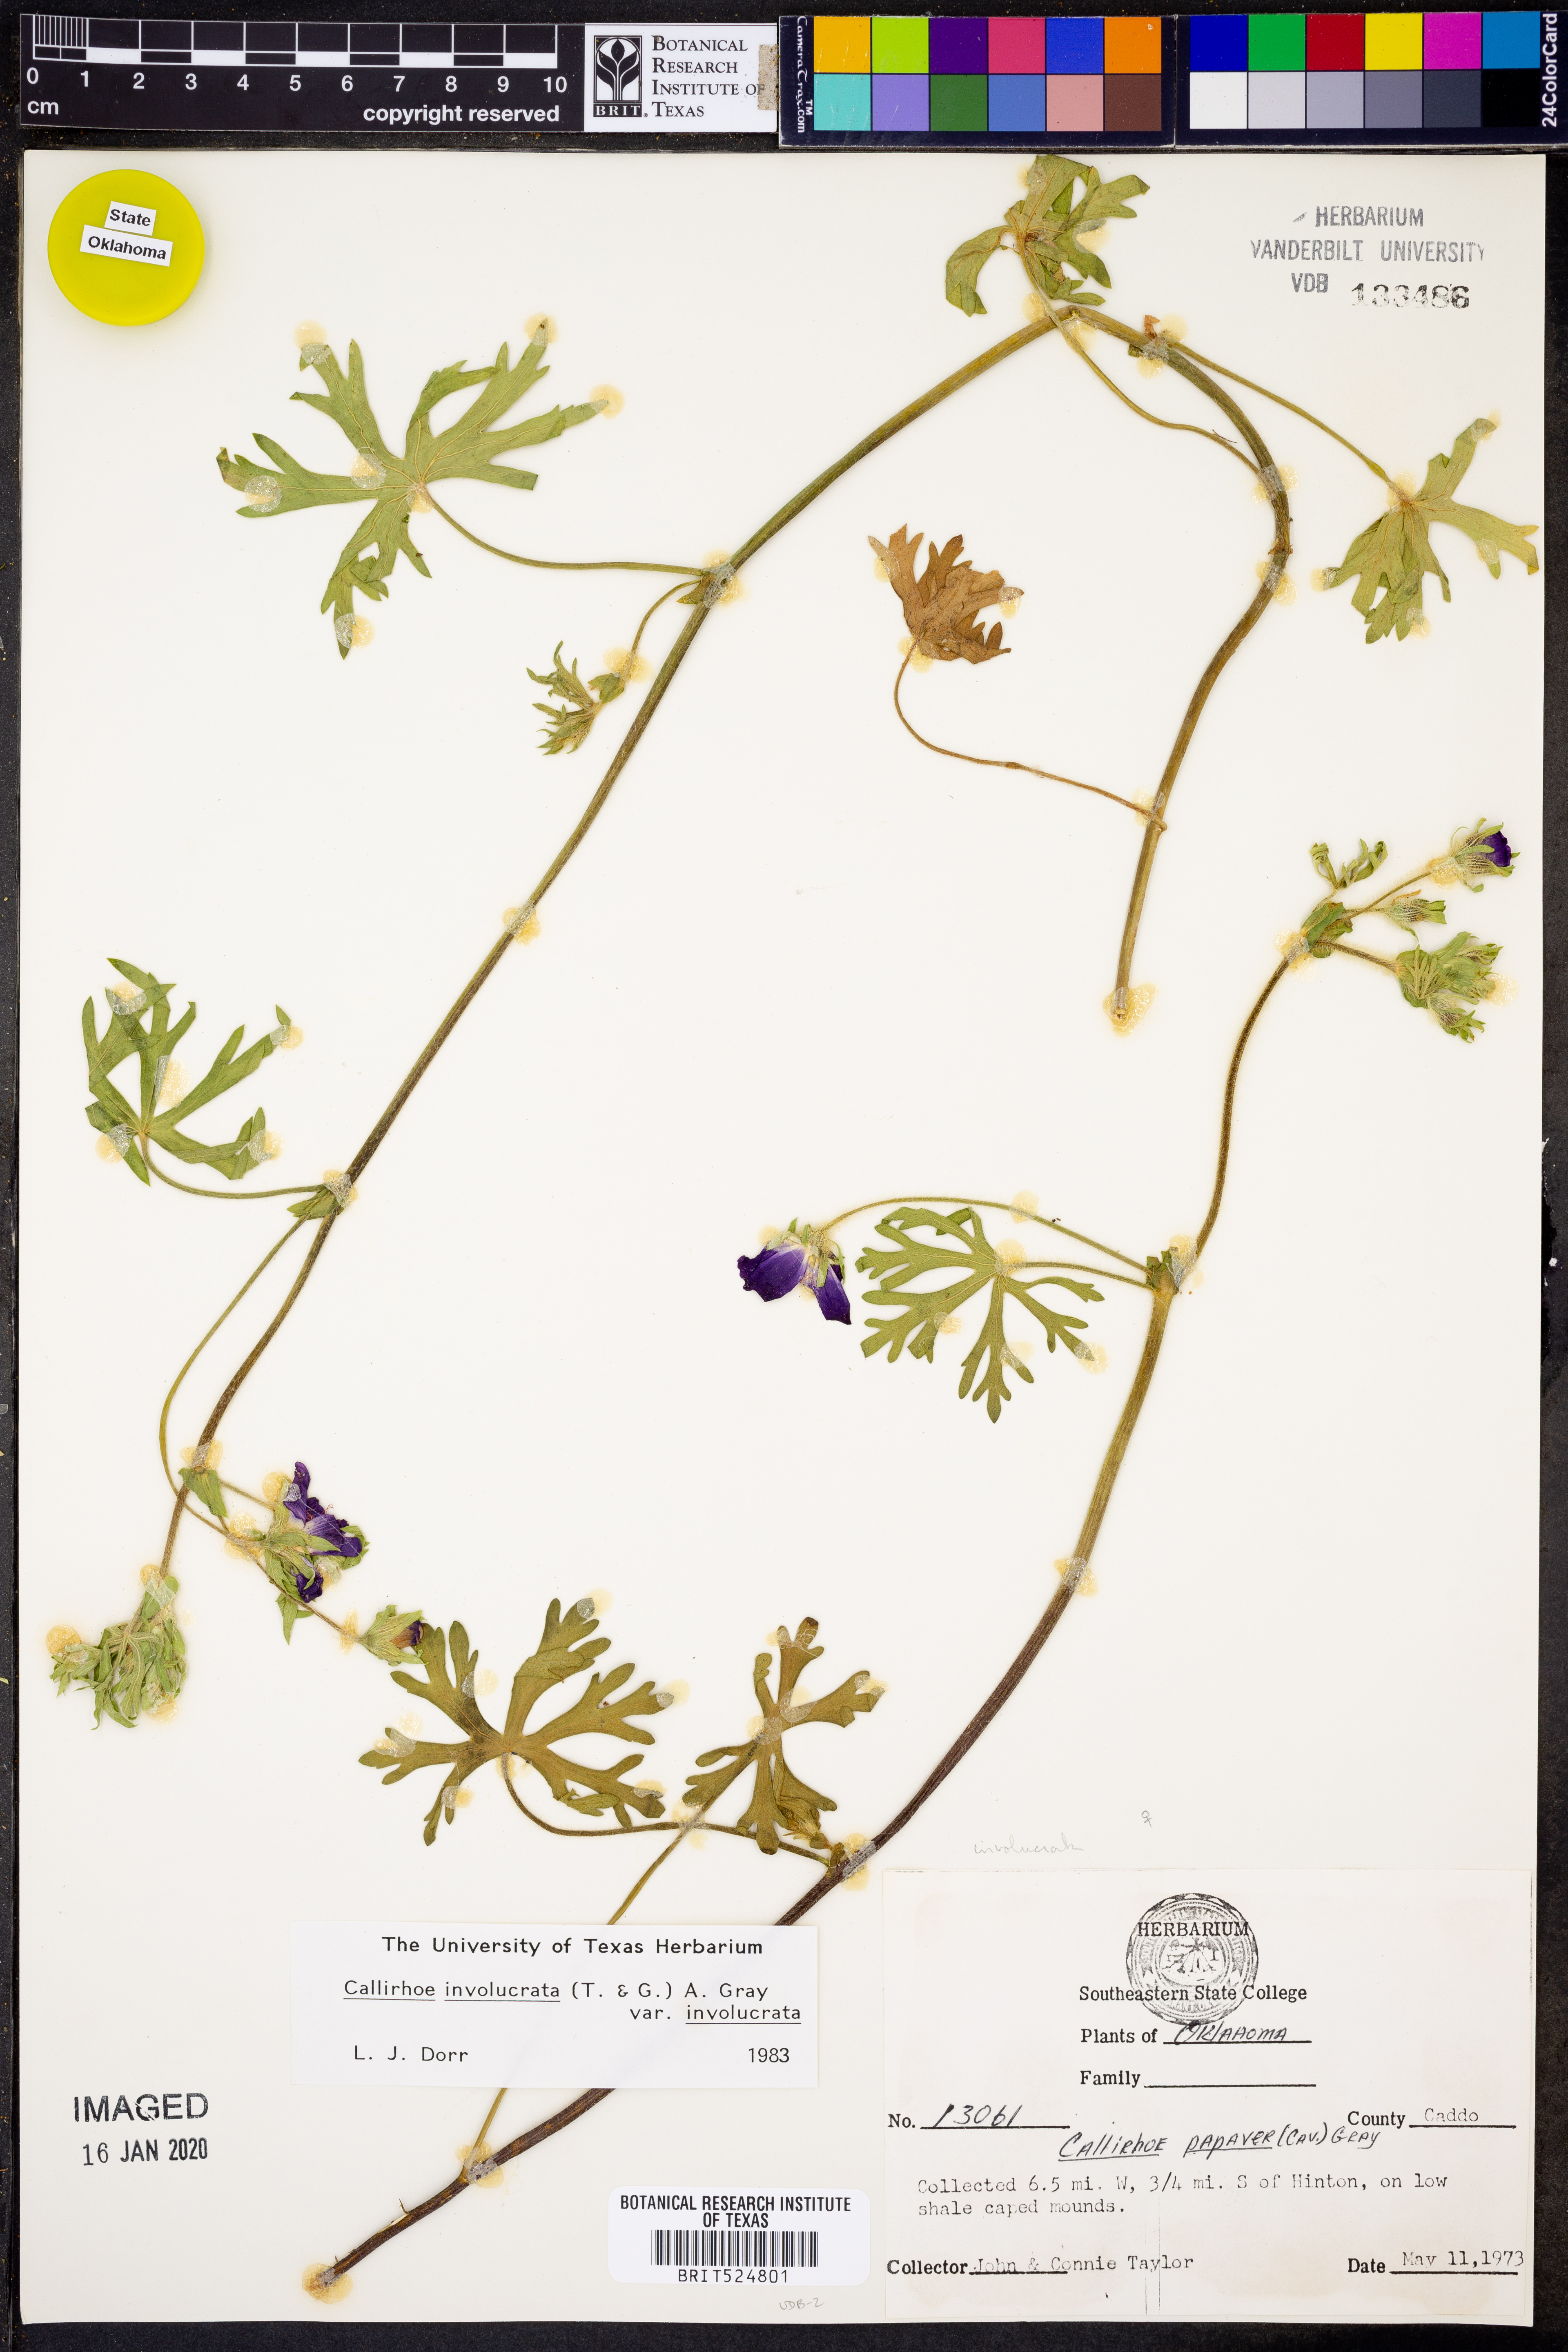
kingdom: Plantae
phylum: Tracheophyta
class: Magnoliopsida
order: Malvales
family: Malvaceae
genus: Callirhoe
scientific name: Callirhoe involucrata
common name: Purple poppy-mallow
